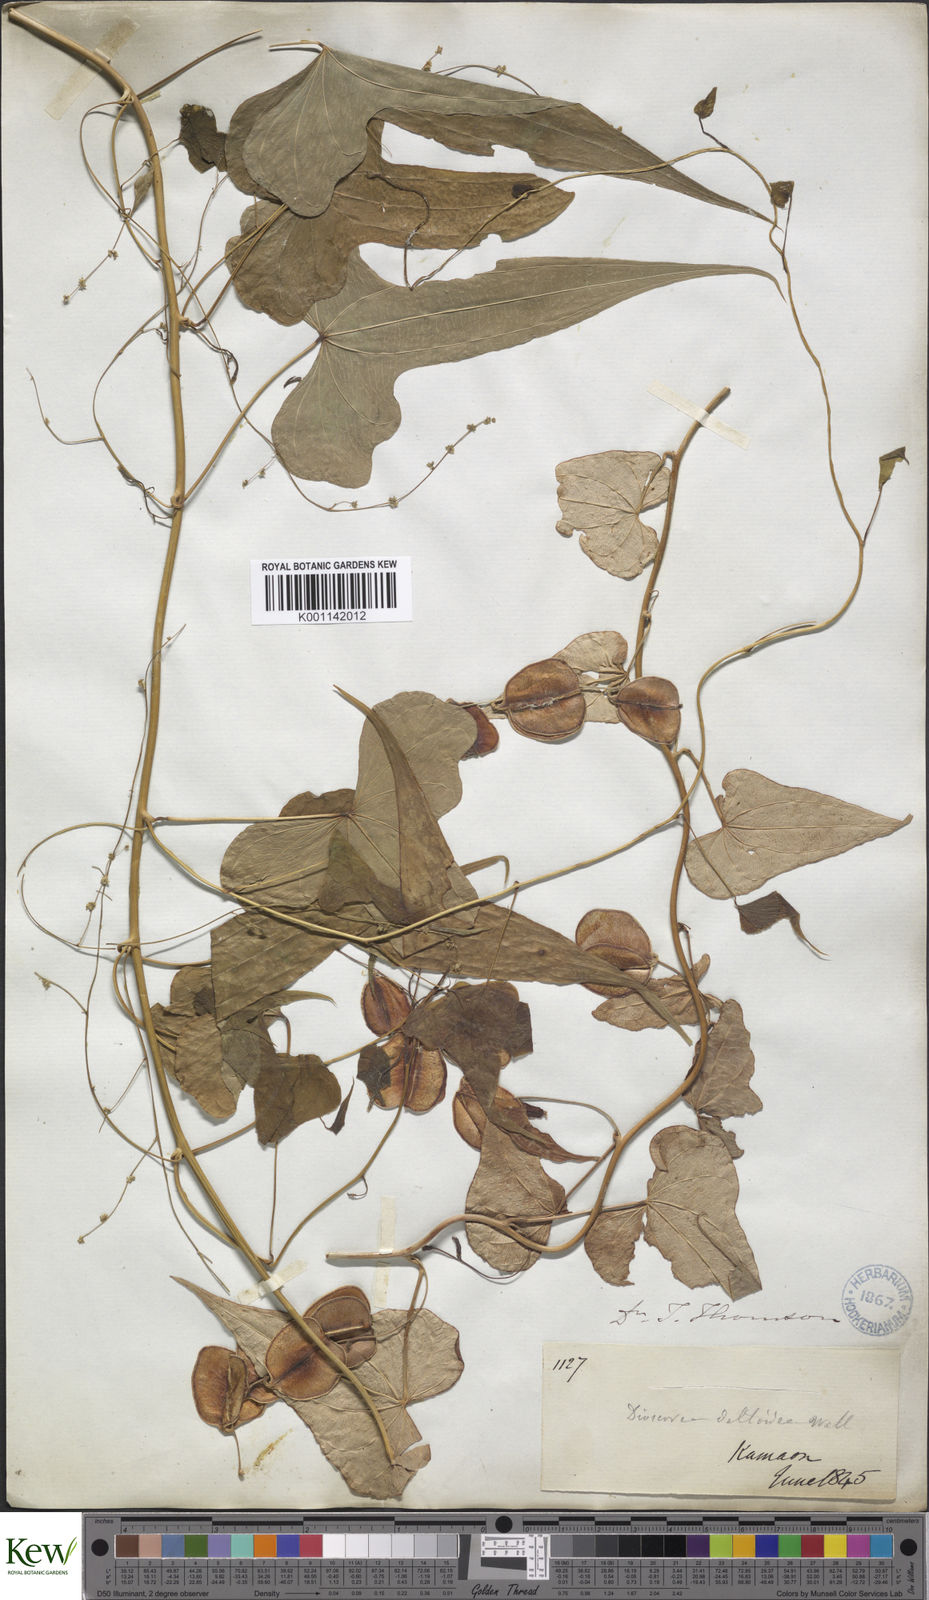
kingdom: Plantae
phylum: Tracheophyta
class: Liliopsida
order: Dioscoreales
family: Dioscoreaceae
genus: Dioscorea
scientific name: Dioscorea deltoidea
